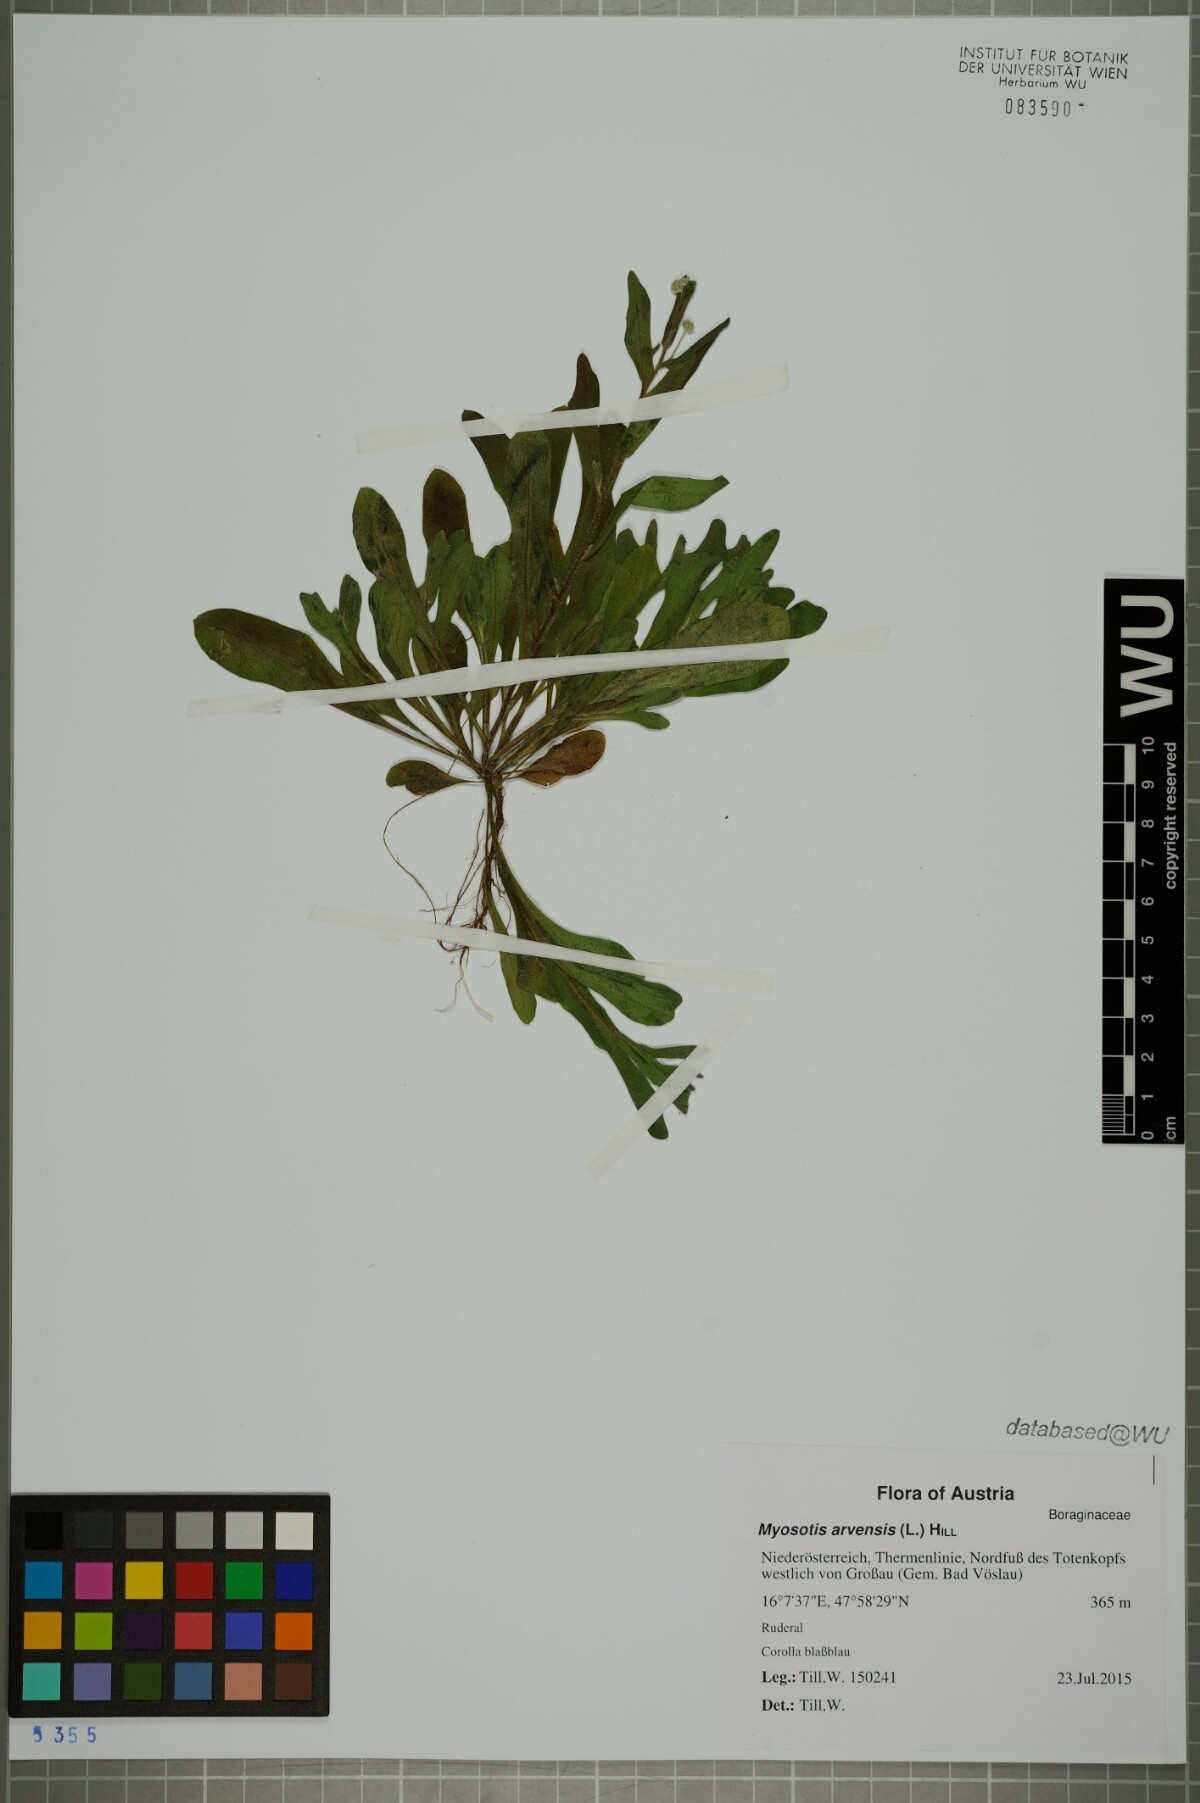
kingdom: Plantae
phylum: Tracheophyta
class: Magnoliopsida
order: Boraginales
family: Boraginaceae
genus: Myosotis
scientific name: Myosotis arvensis
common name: Field forget-me-not
